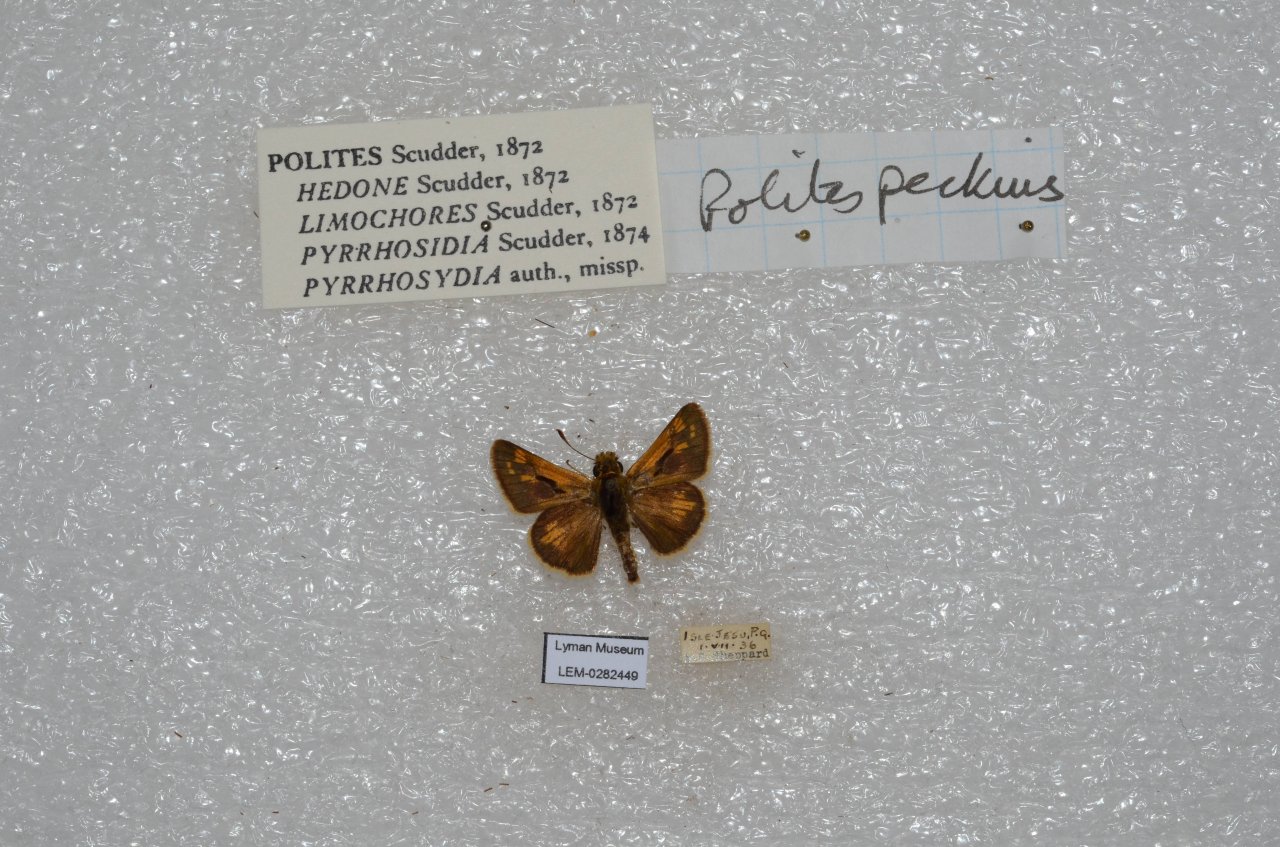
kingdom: Animalia
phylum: Arthropoda
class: Insecta
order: Lepidoptera
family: Hesperiidae
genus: Polites
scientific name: Polites coras
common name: Peck's Skipper
